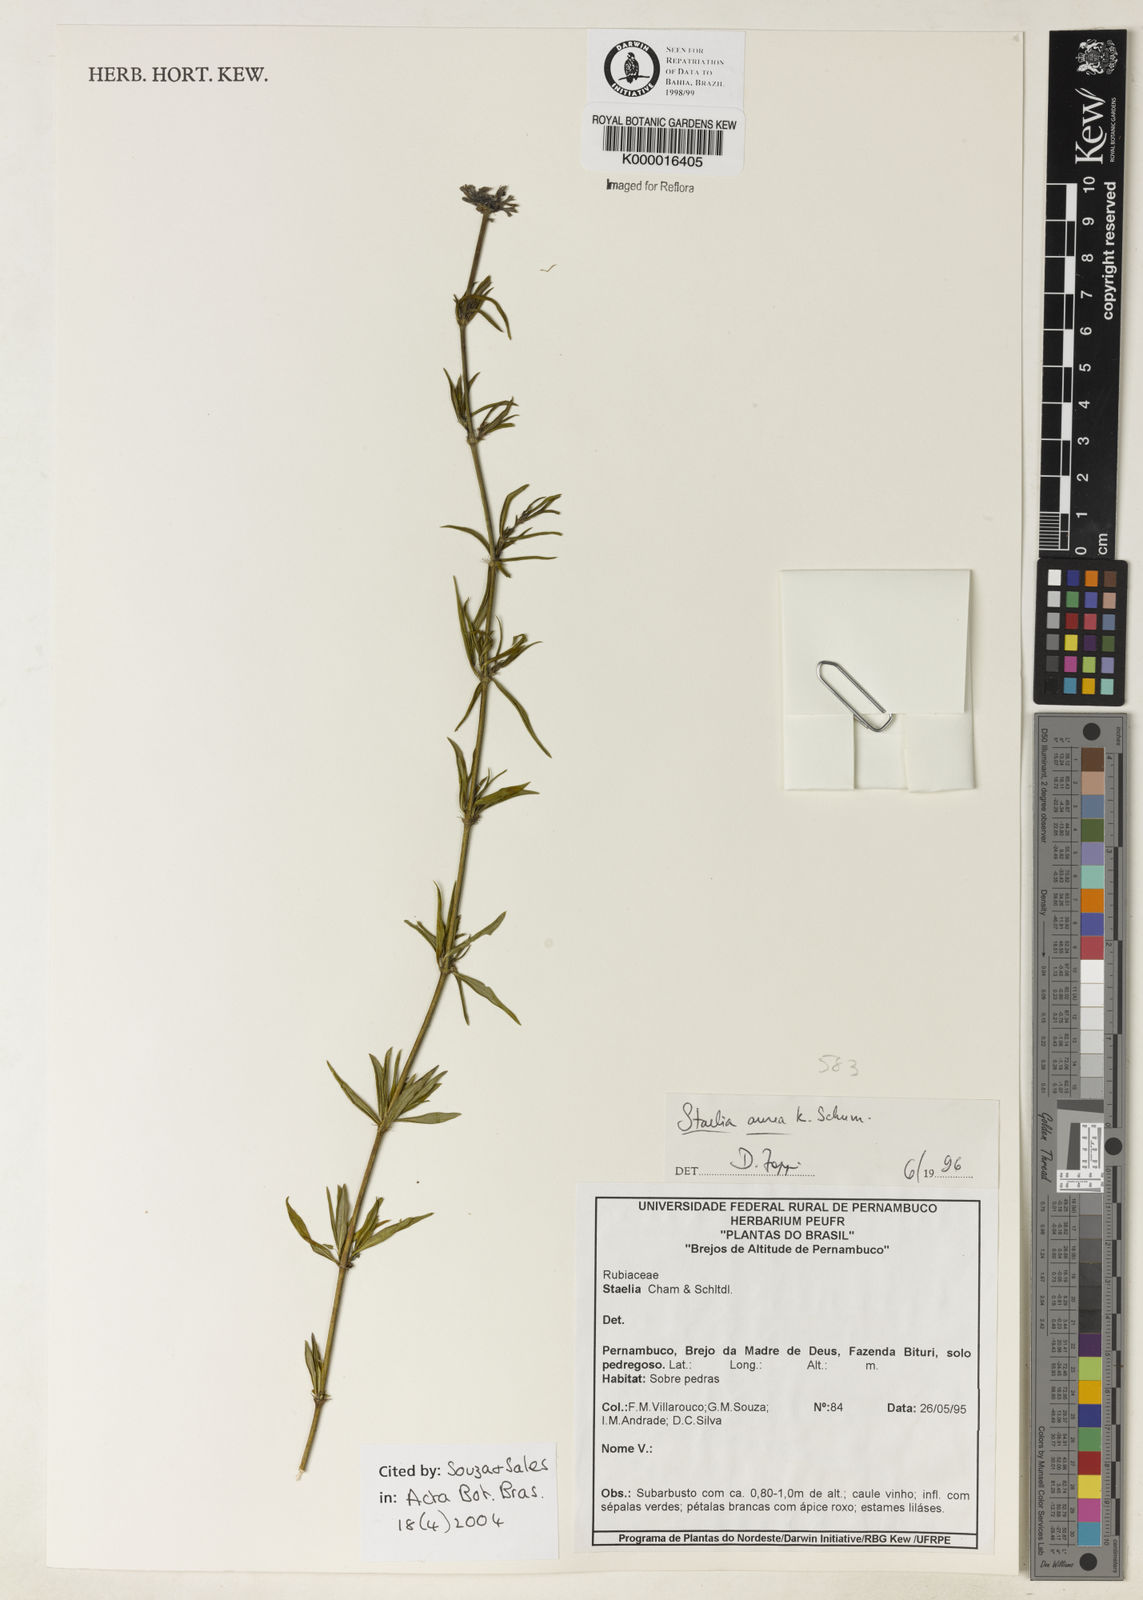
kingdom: Plantae
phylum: Tracheophyta
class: Magnoliopsida
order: Gentianales
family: Rubiaceae
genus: Staelia
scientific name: Staelia aurea
